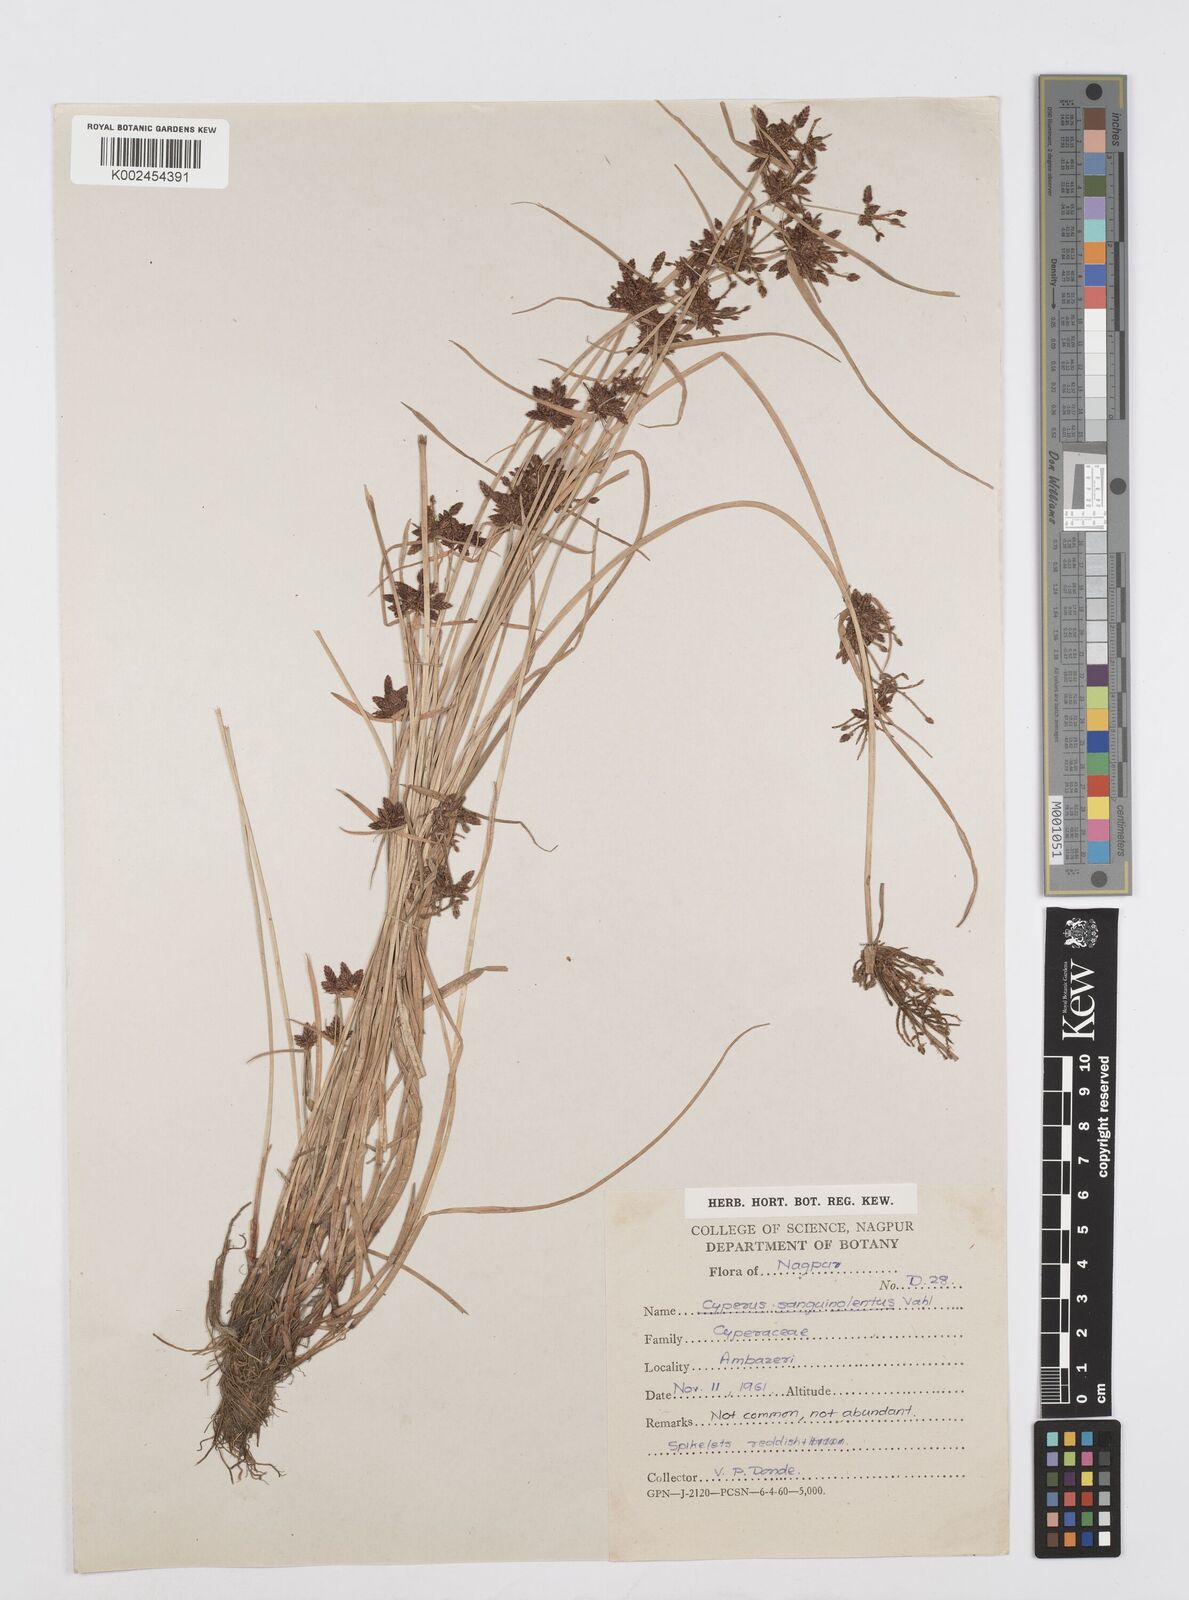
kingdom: Plantae
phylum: Tracheophyta
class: Liliopsida
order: Poales
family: Cyperaceae
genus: Cyperus
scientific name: Cyperus sanguinolentus
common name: Purpleglume flatsedge
